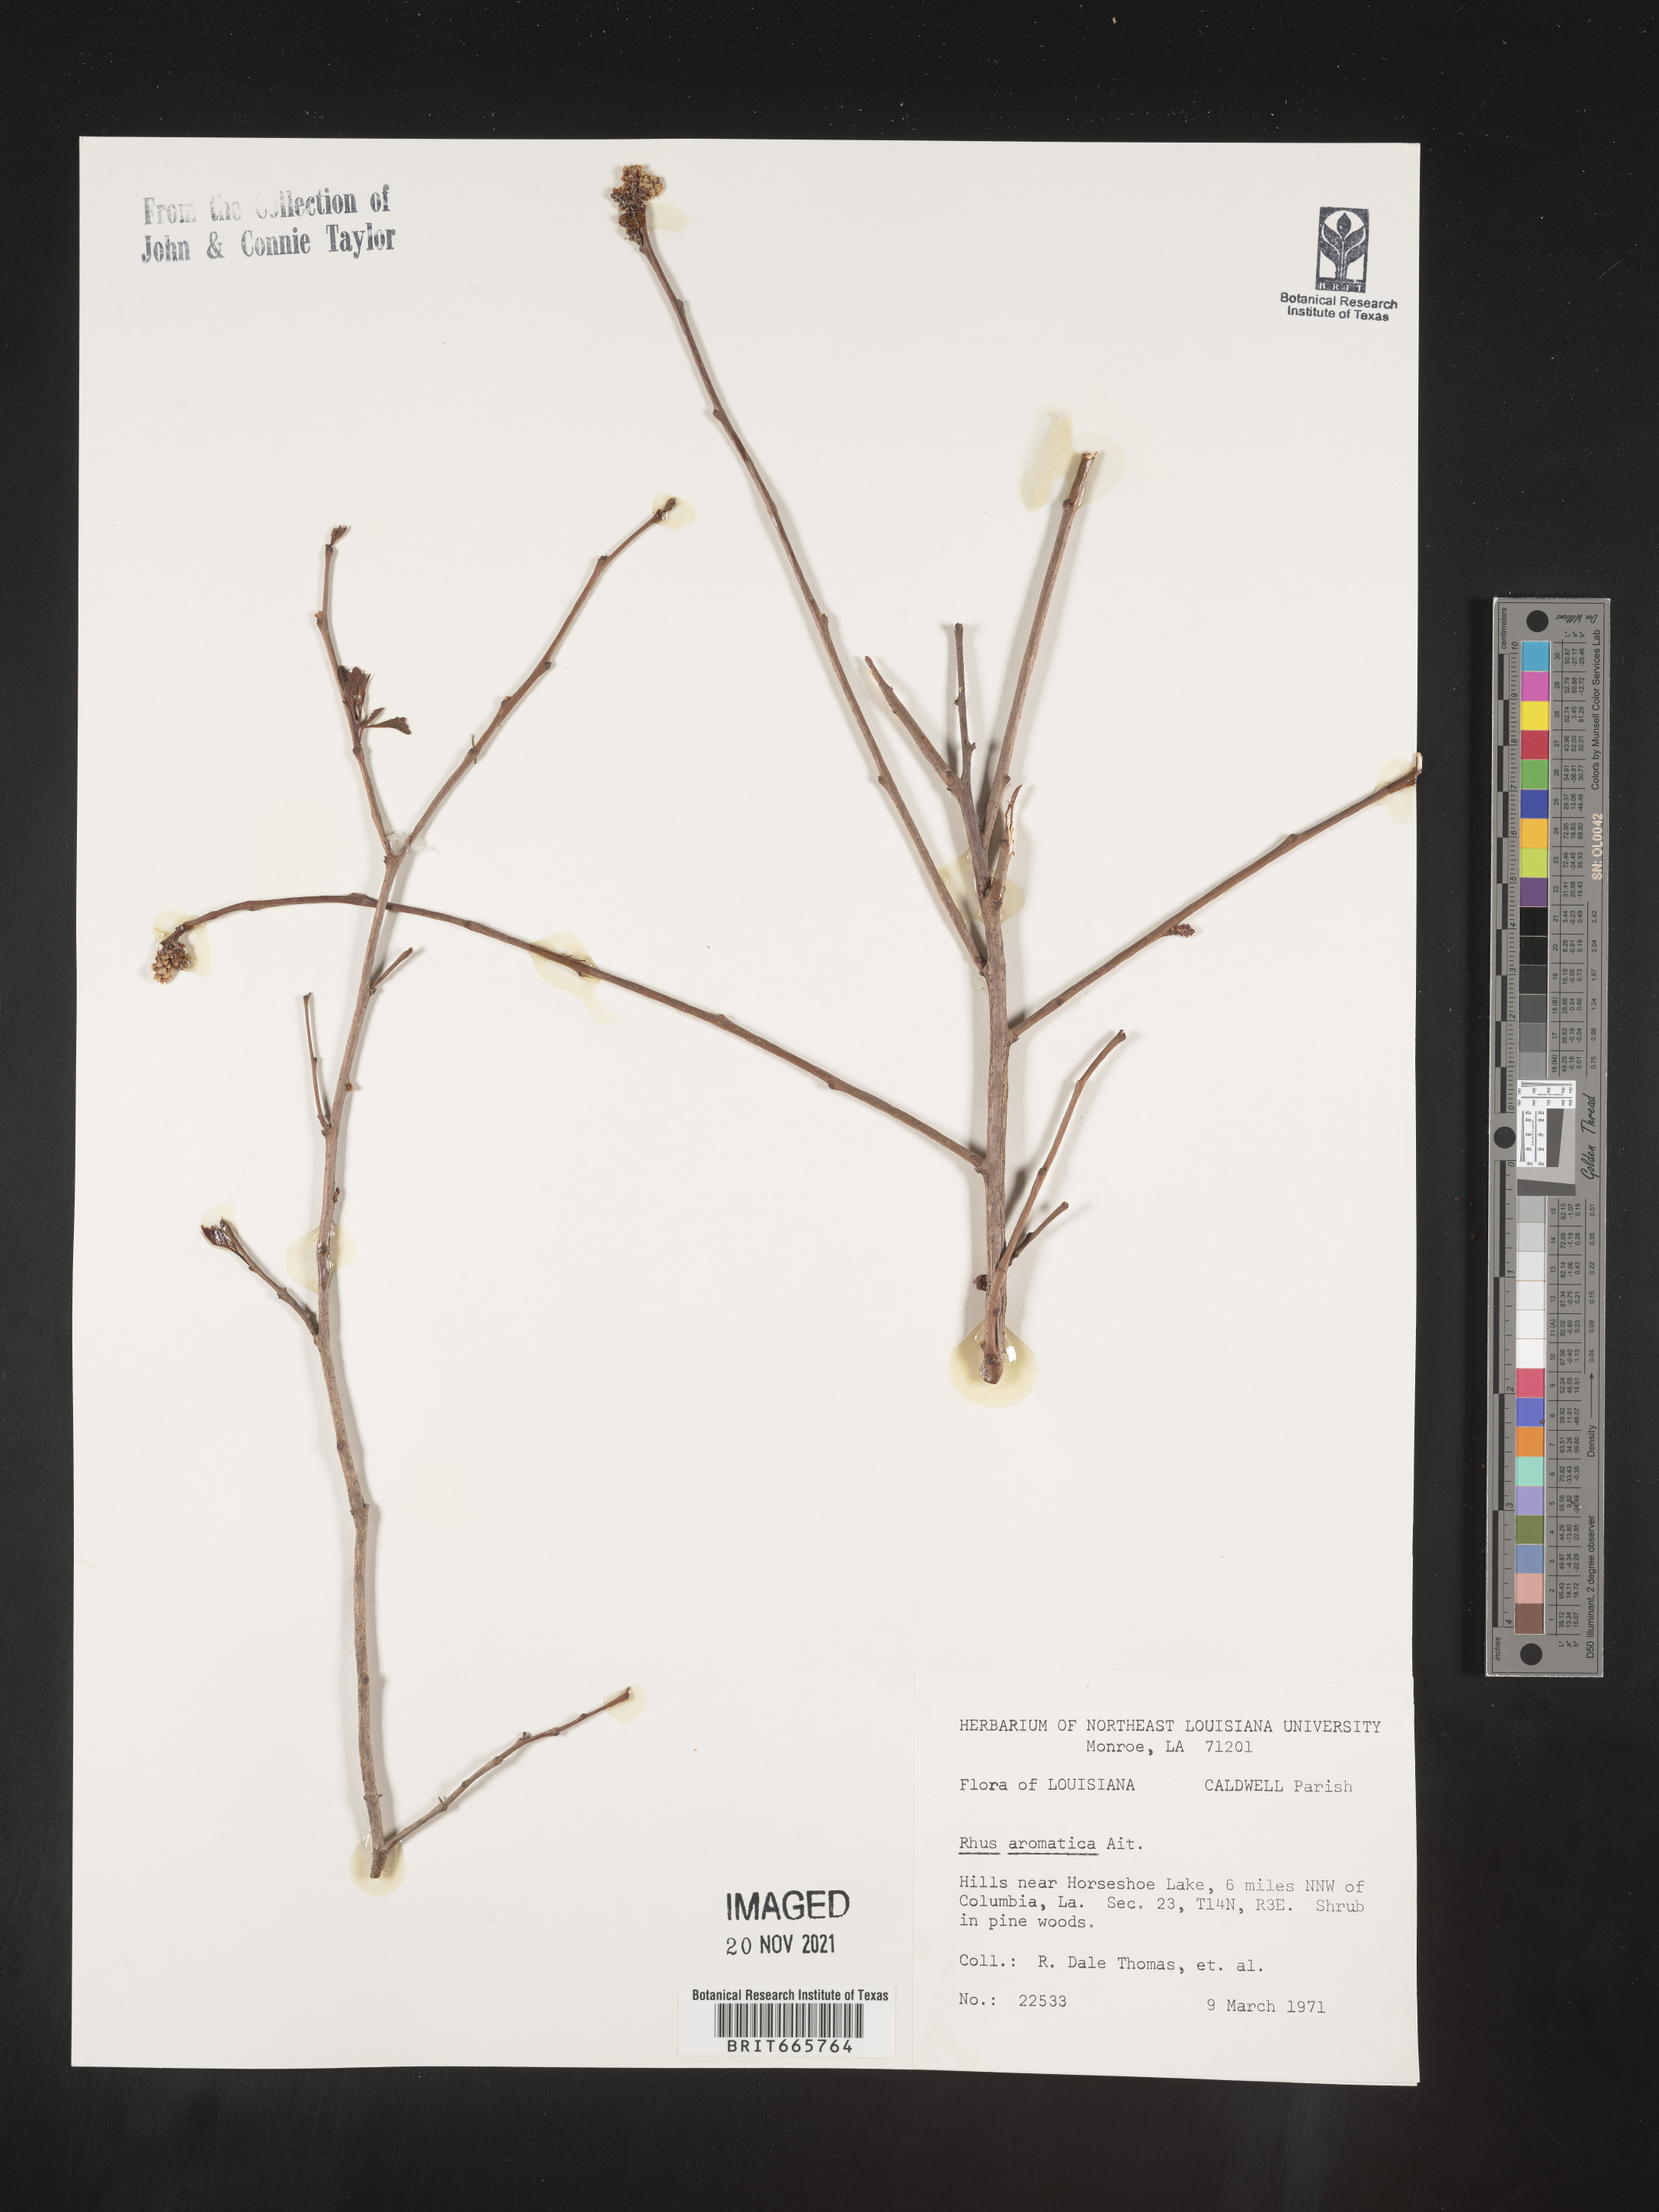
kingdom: Plantae
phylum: Tracheophyta
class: Magnoliopsida
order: Sapindales
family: Anacardiaceae
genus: Rhus
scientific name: Rhus aromatica
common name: Aromatic sumac
